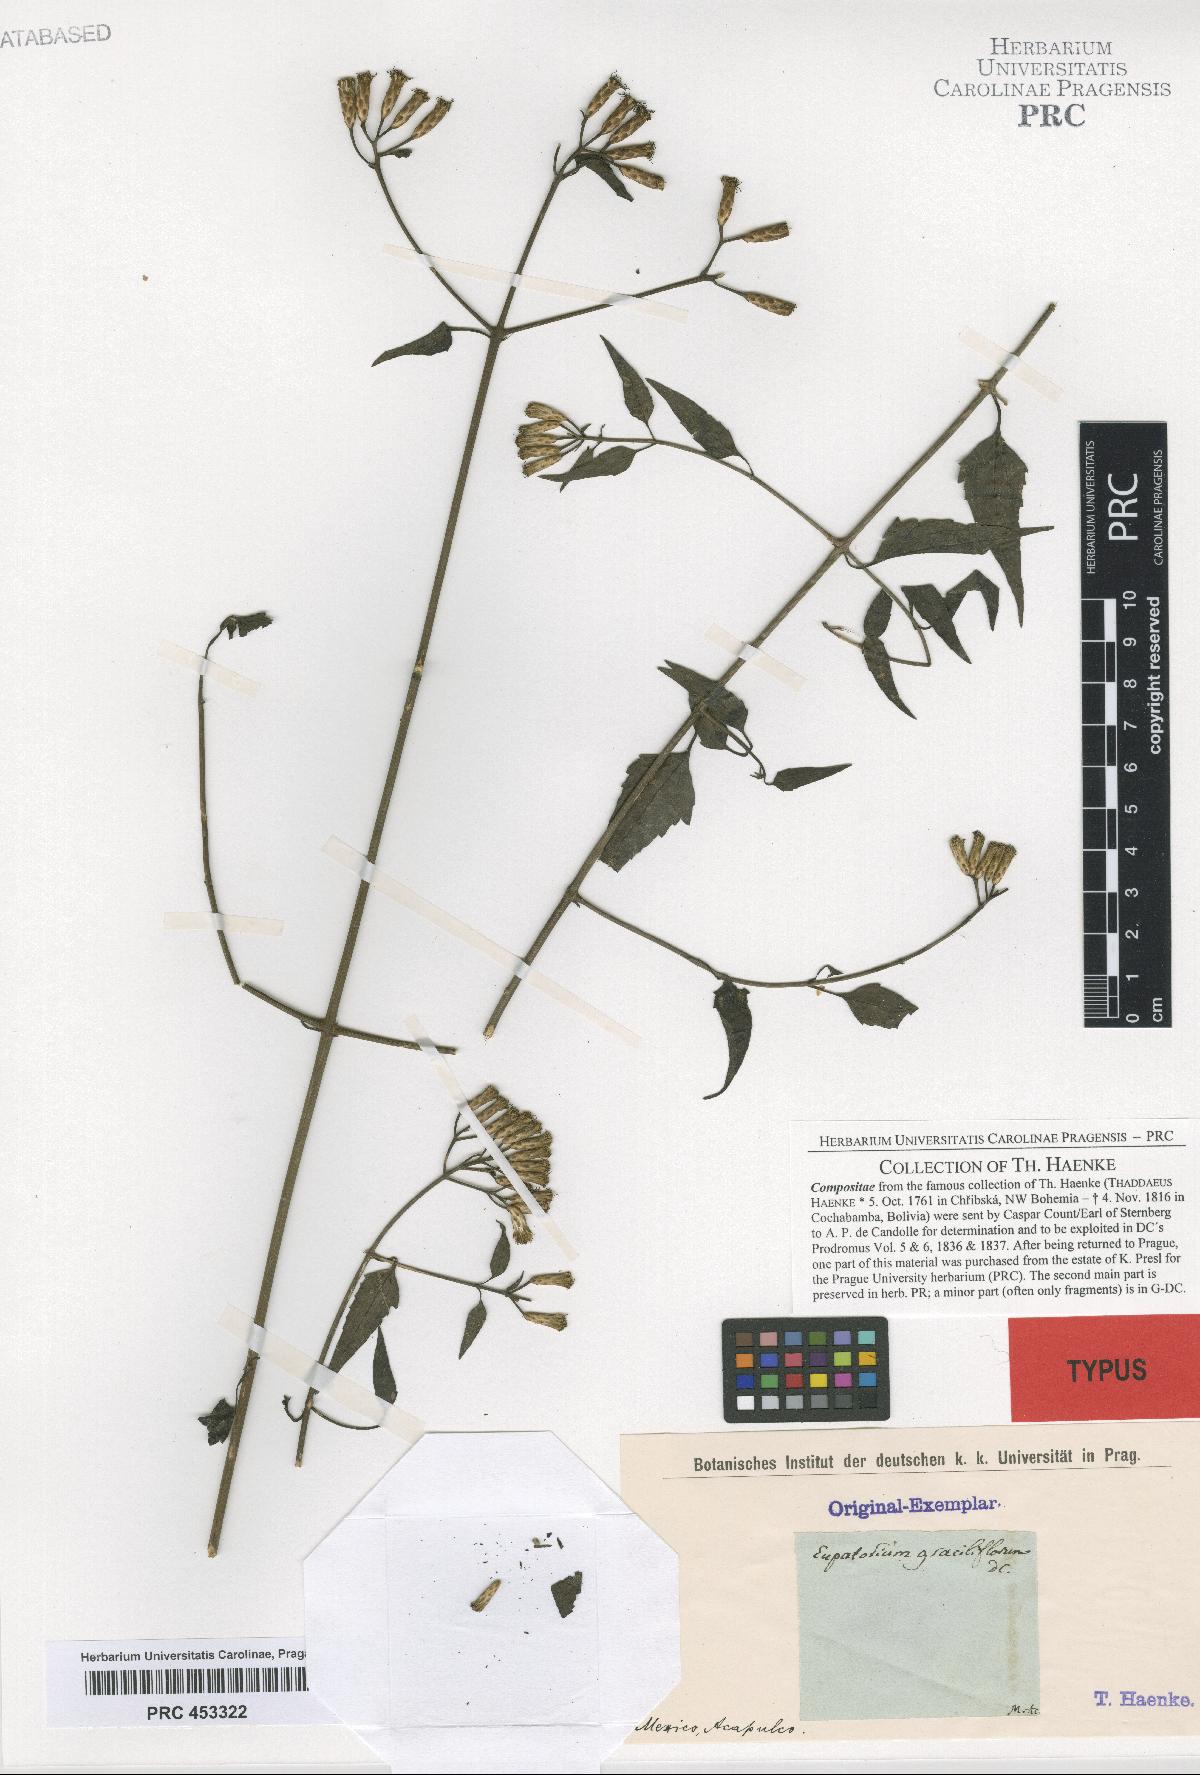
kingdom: Plantae
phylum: Tracheophyta
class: Magnoliopsida
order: Asterales
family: Asteraceae
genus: Chromolaena
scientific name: Chromolaena odorata
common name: Siamweed
